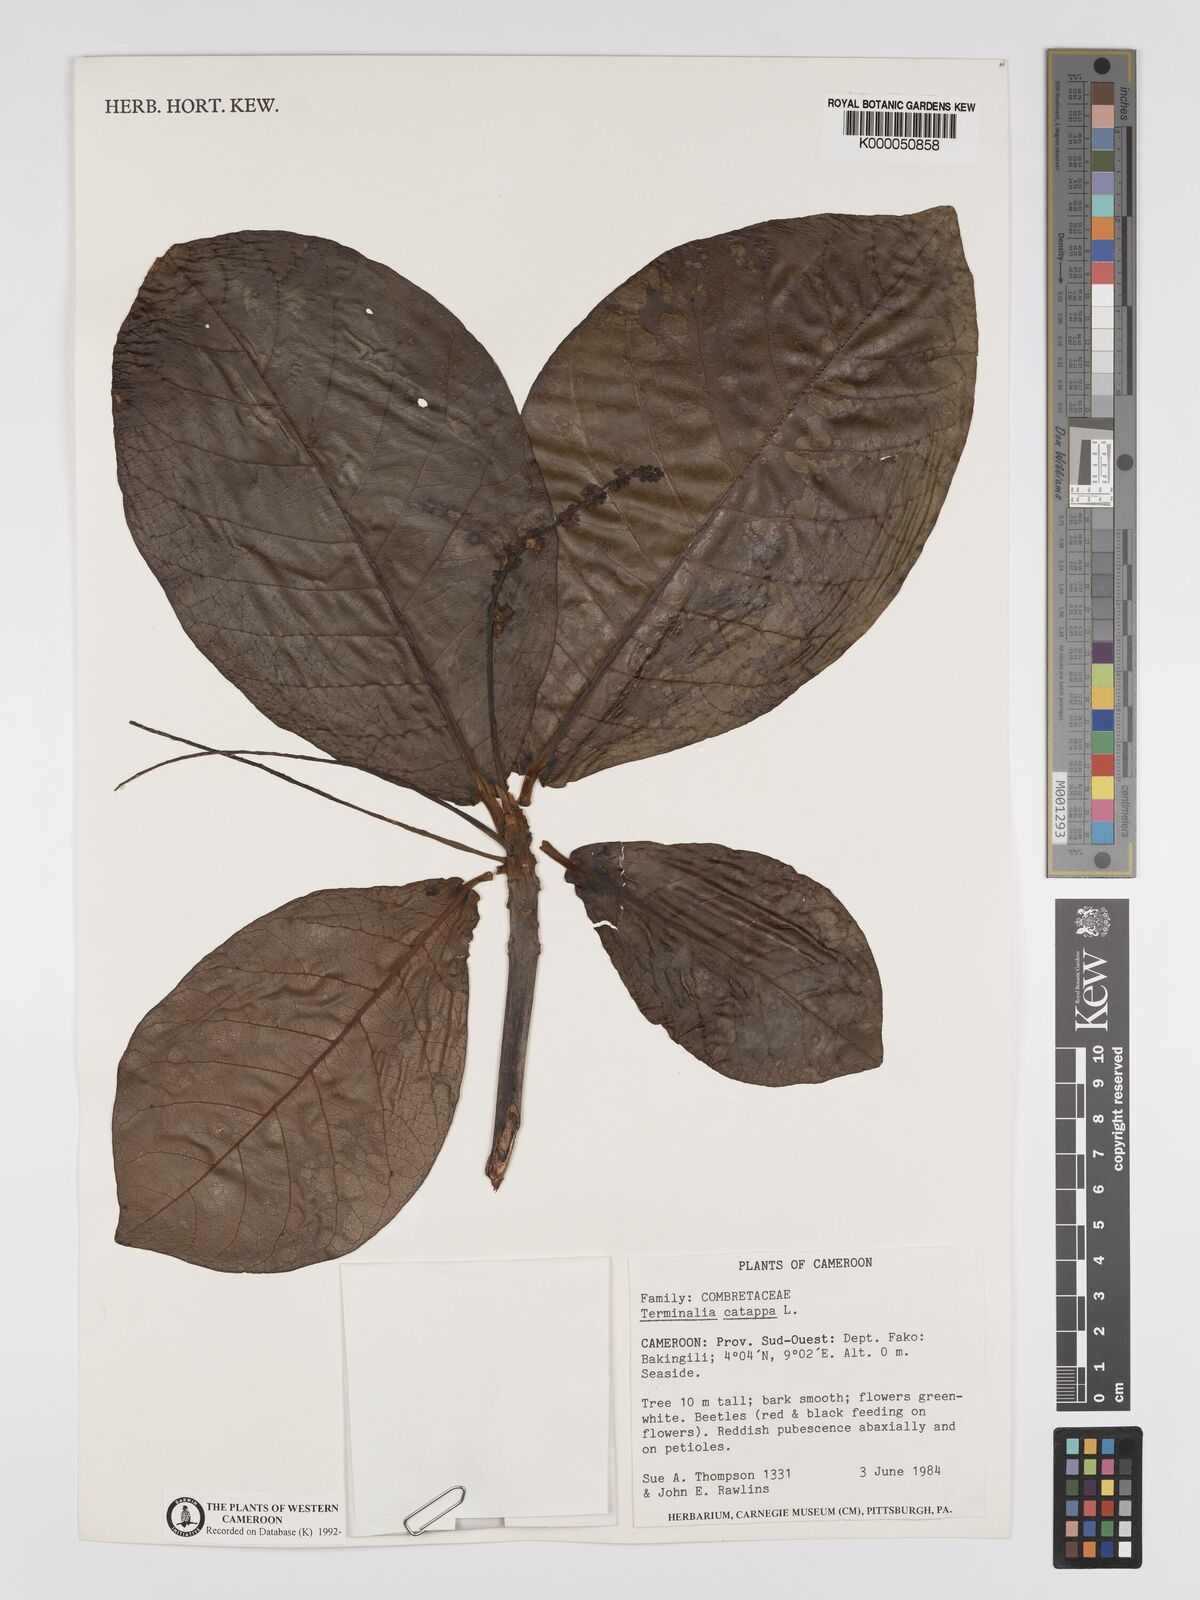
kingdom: Plantae
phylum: Tracheophyta
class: Magnoliopsida
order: Myrtales
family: Combretaceae
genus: Terminalia
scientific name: Terminalia catappa
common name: Tropical almond
